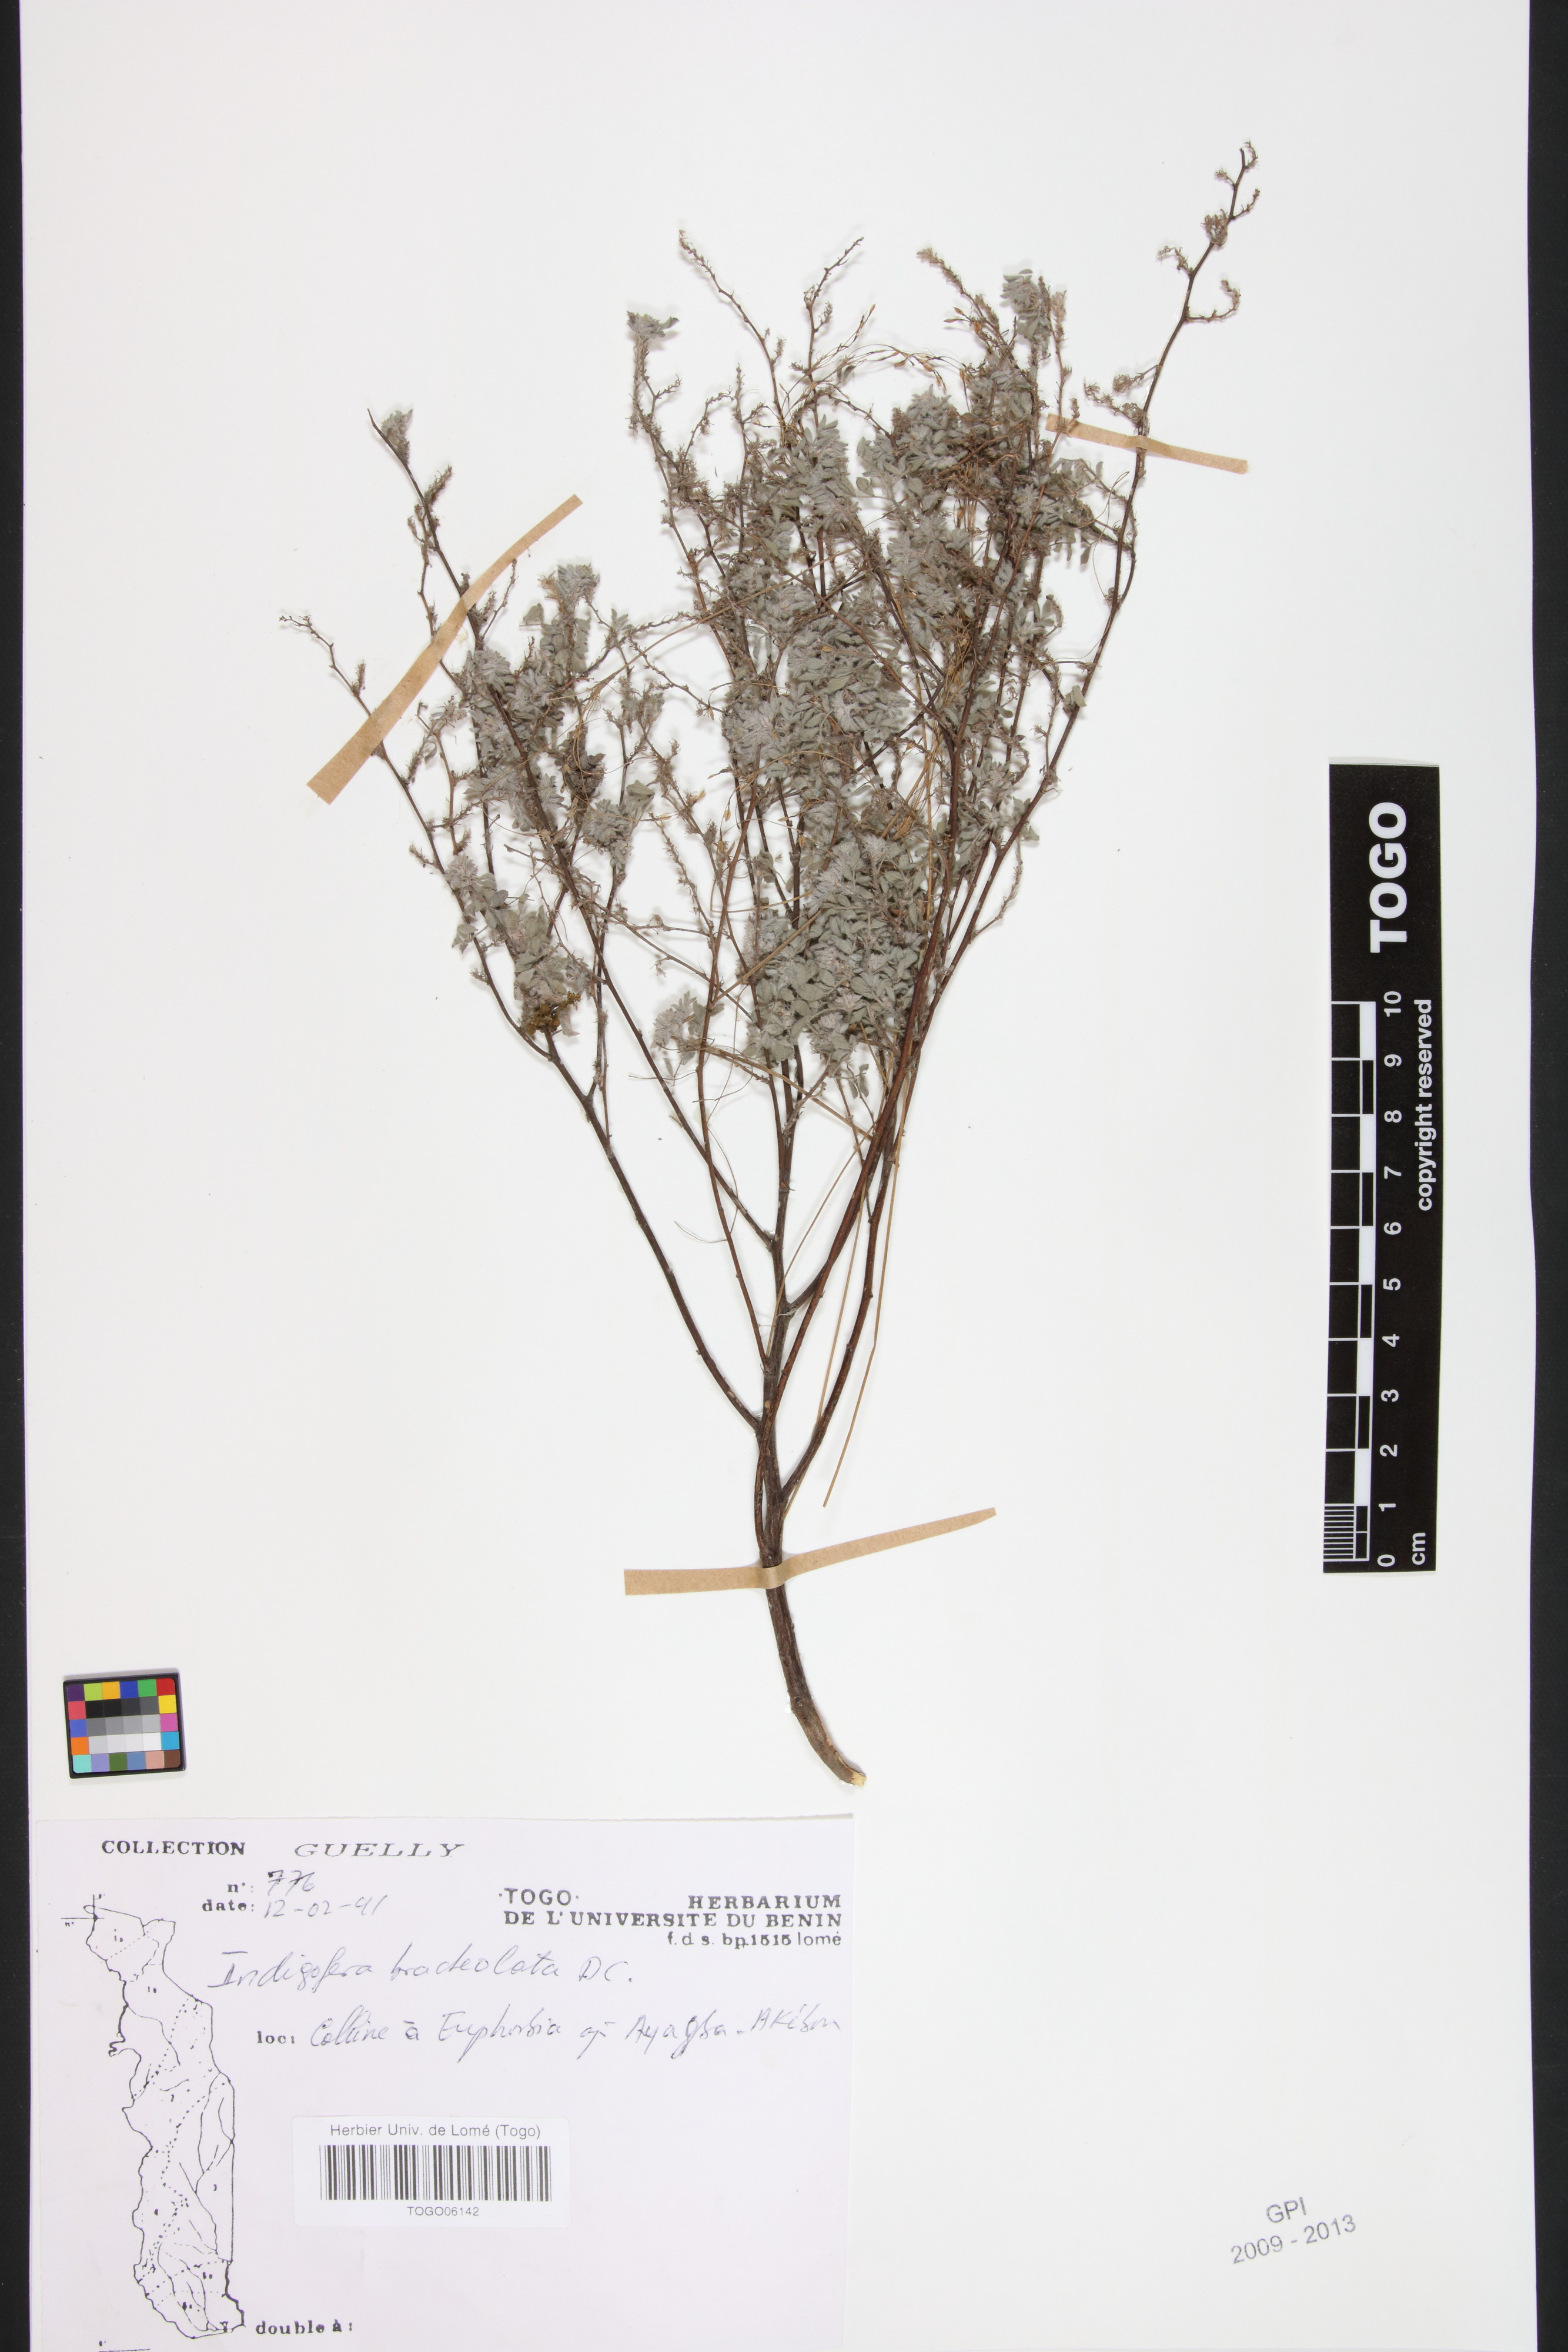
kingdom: Plantae
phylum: Tracheophyta
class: Magnoliopsida
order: Fabales
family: Fabaceae
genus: Indigofera
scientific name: Indigofera bracteolata
